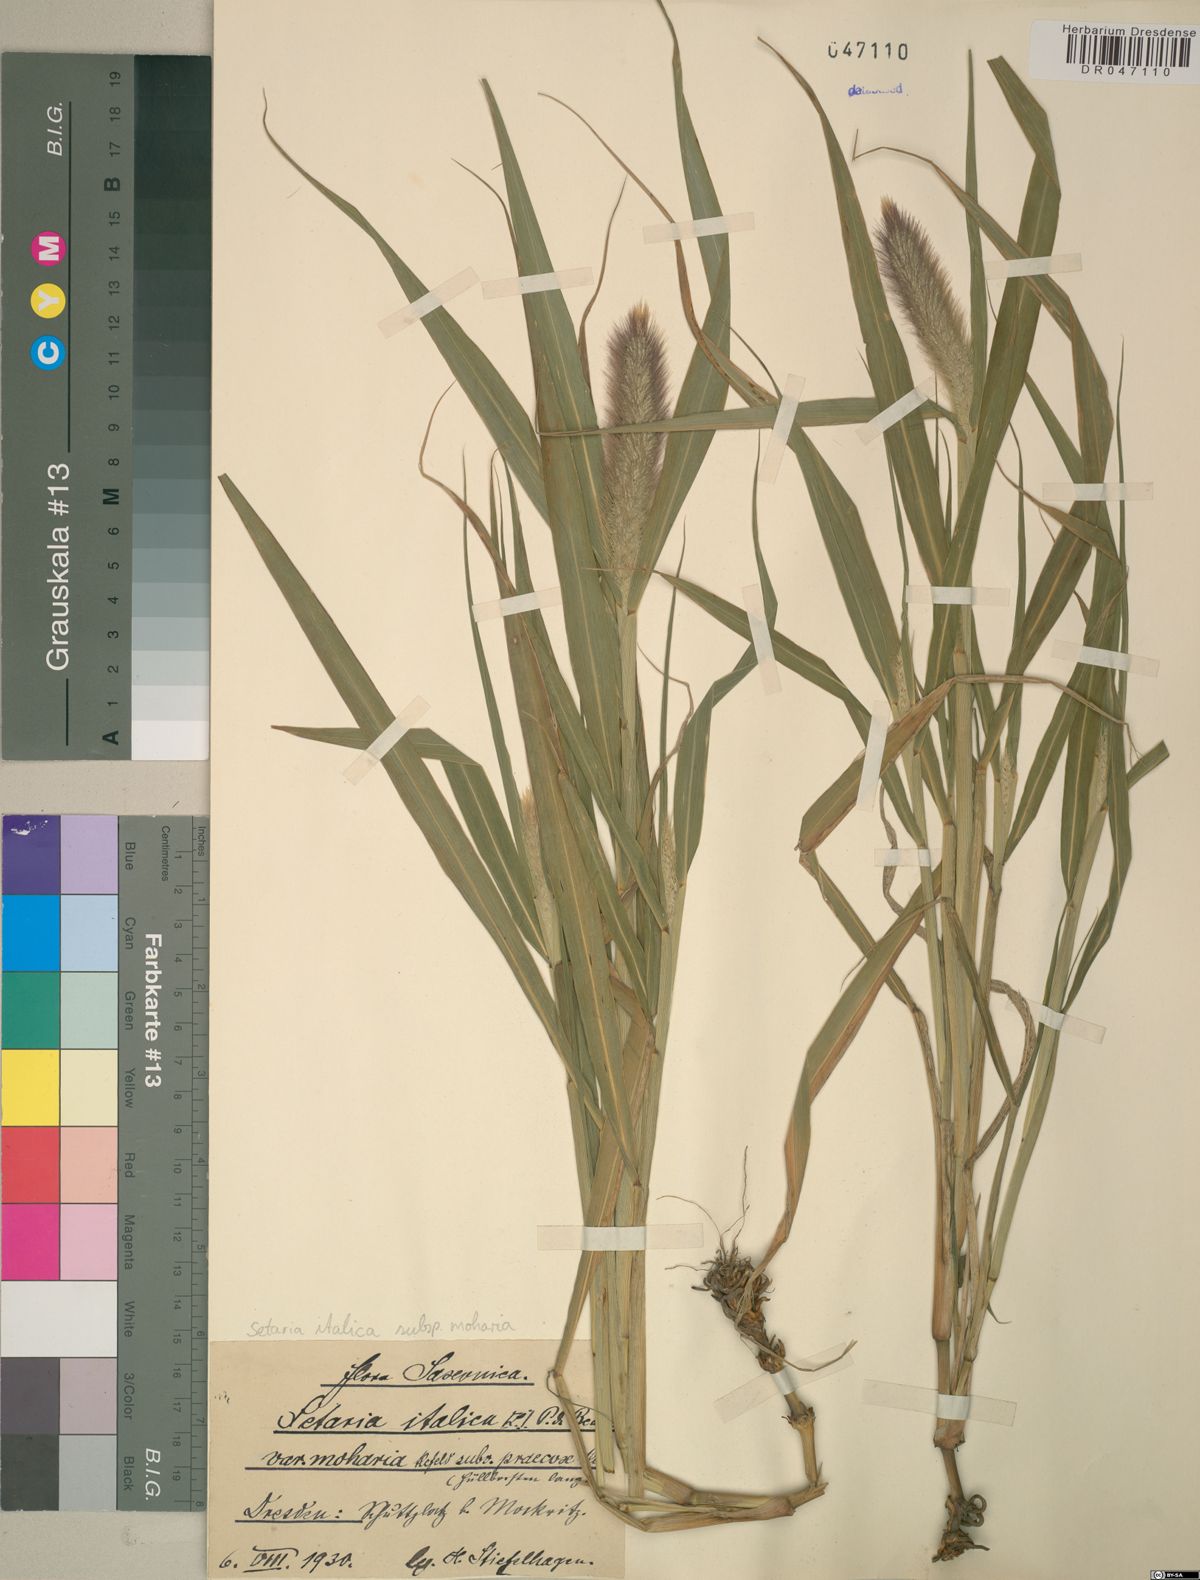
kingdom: Plantae
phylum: Tracheophyta
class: Liliopsida
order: Poales
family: Poaceae
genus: Setaria
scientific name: Setaria italica
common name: Foxtail bristle-grass
